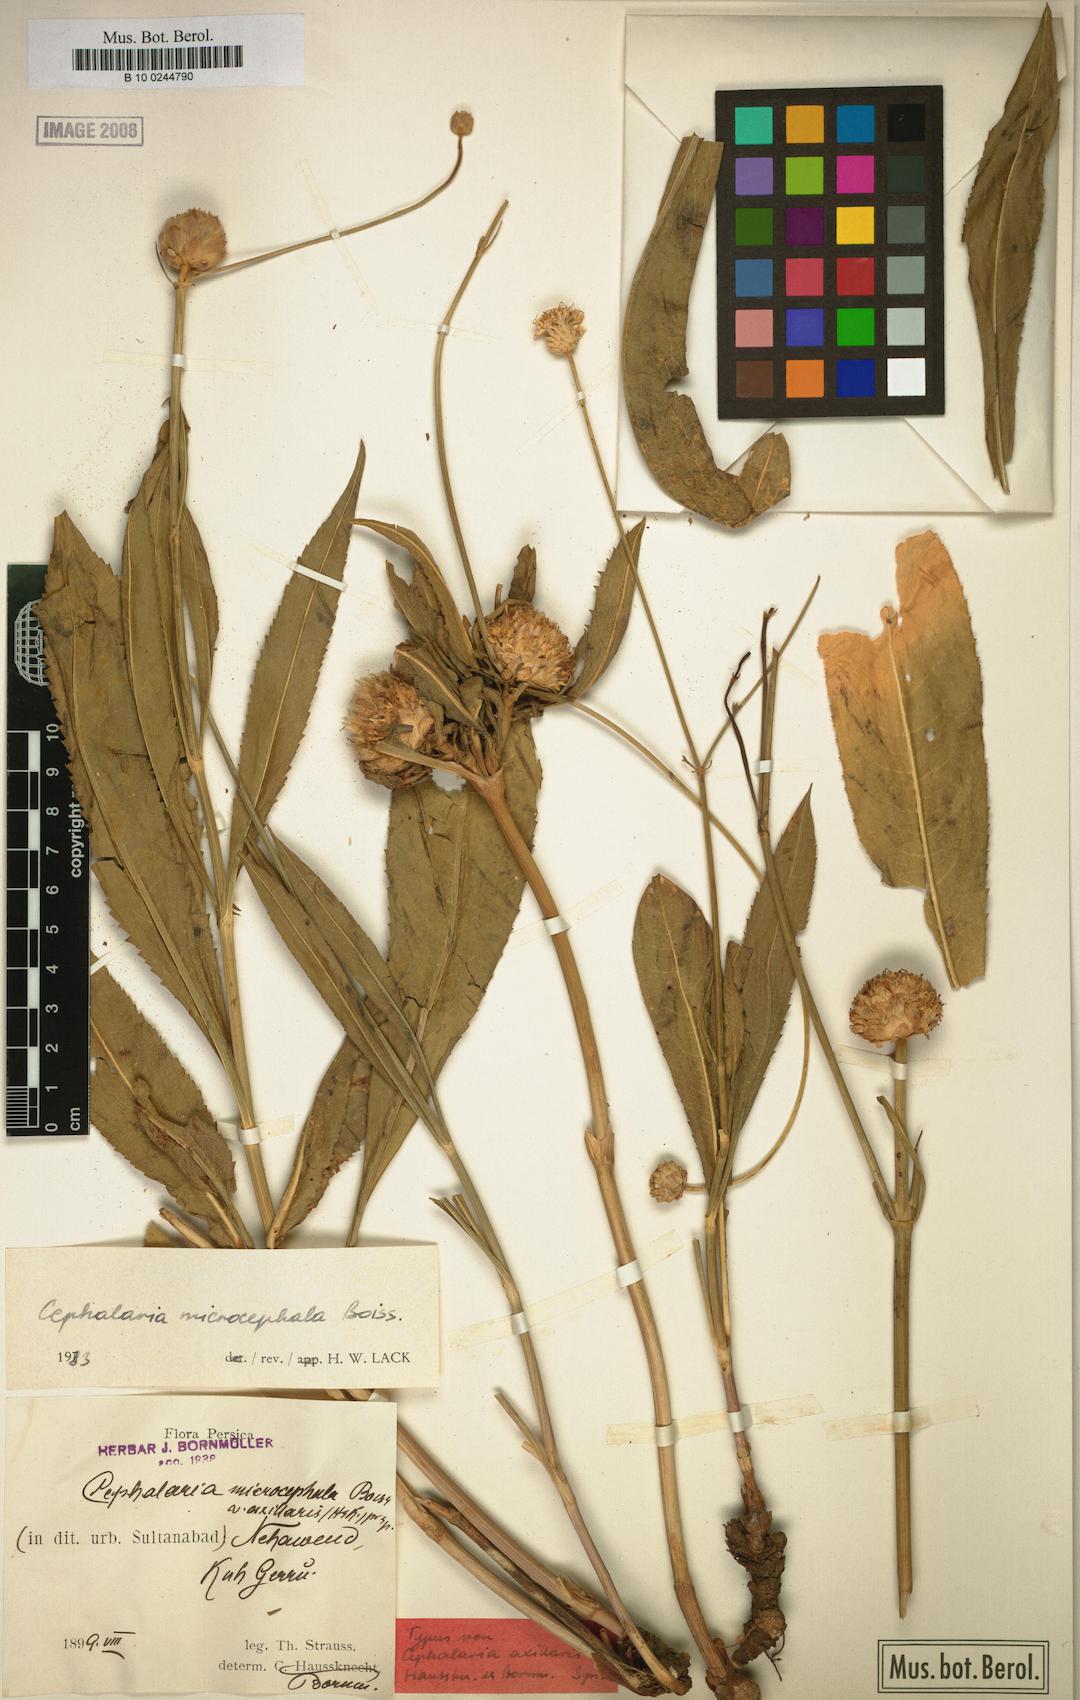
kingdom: Plantae
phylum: Tracheophyta
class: Magnoliopsida
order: Dipsacales
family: Caprifoliaceae
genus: Cephalaria
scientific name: Cephalaria microcephala
